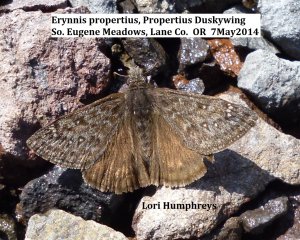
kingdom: Animalia
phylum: Arthropoda
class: Insecta
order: Lepidoptera
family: Hesperiidae
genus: Erynnis
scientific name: Erynnis propertius
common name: Propertius Duskywing
